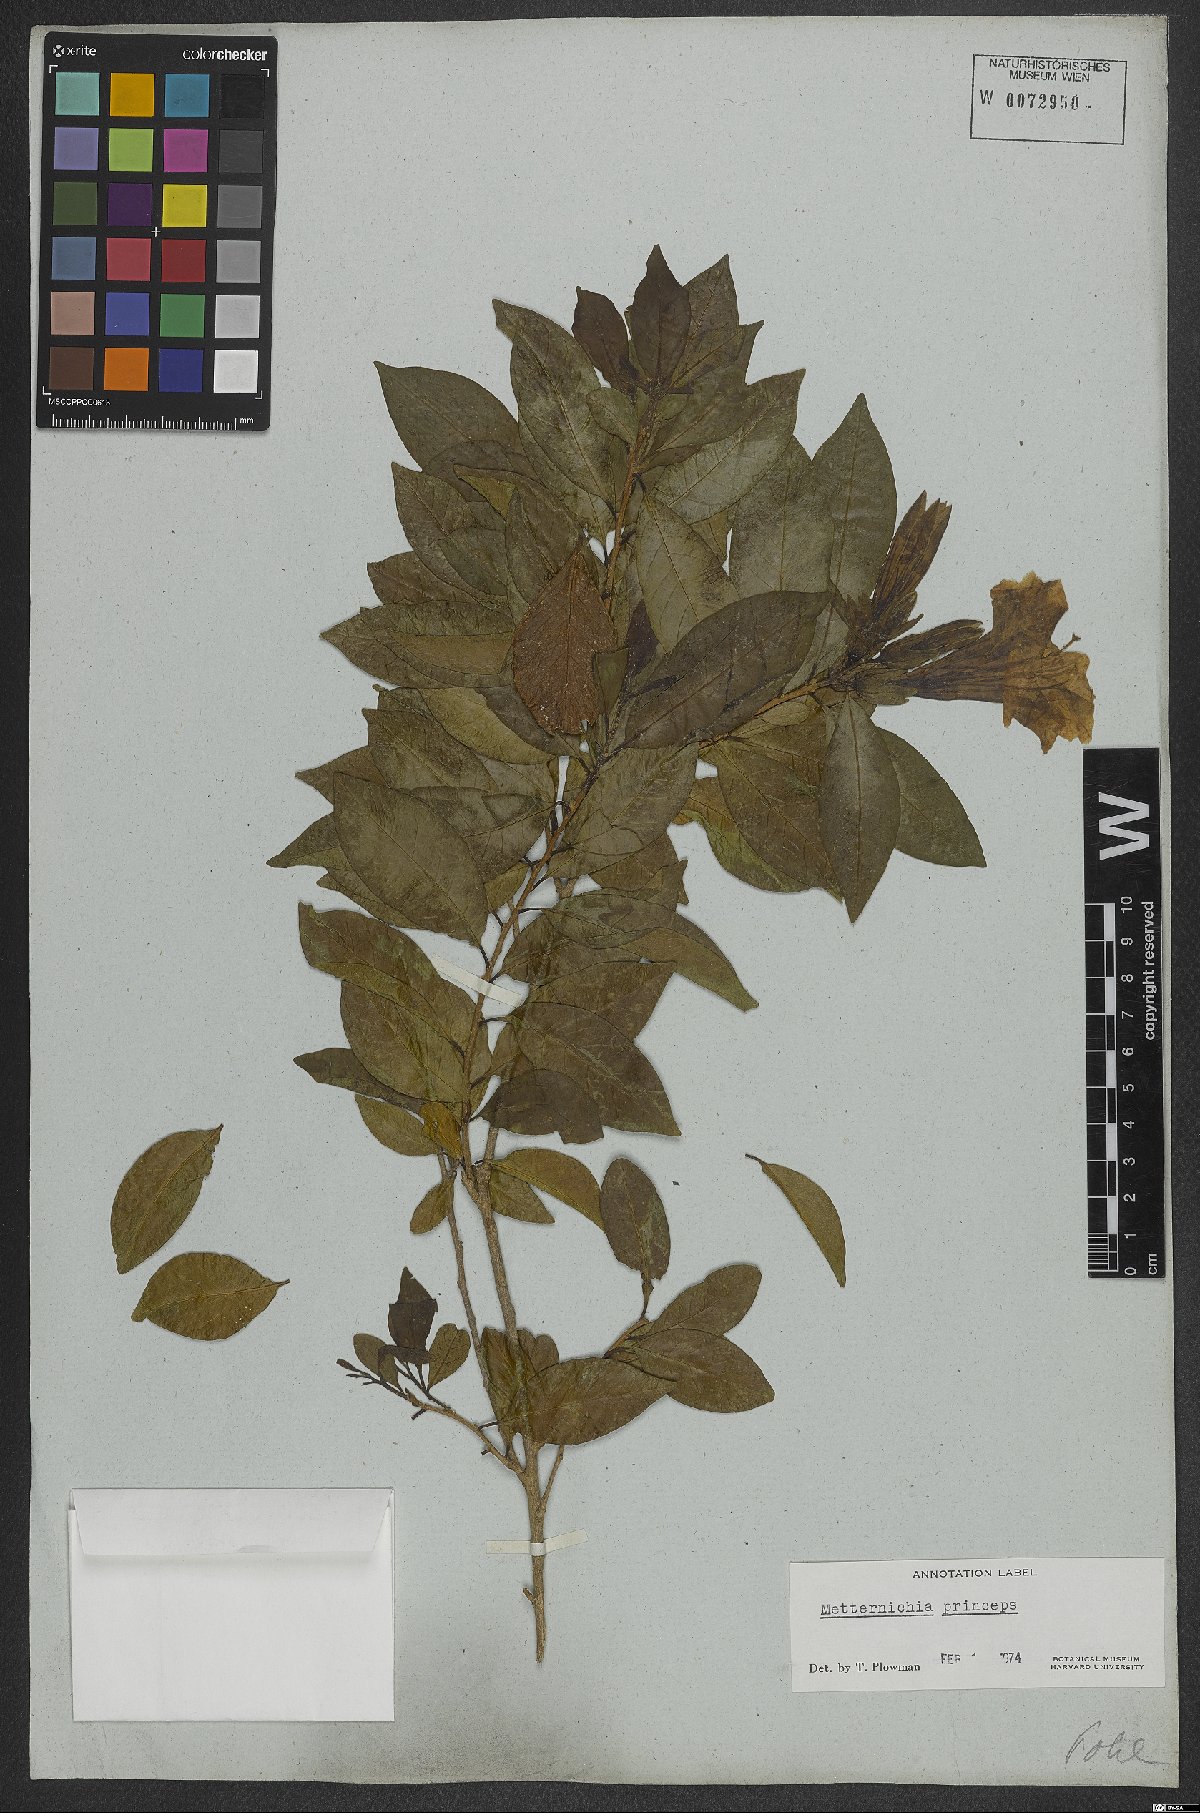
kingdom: Plantae
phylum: Tracheophyta
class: Magnoliopsida
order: Solanales
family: Solanaceae
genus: Metternichia
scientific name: Metternichia principis
